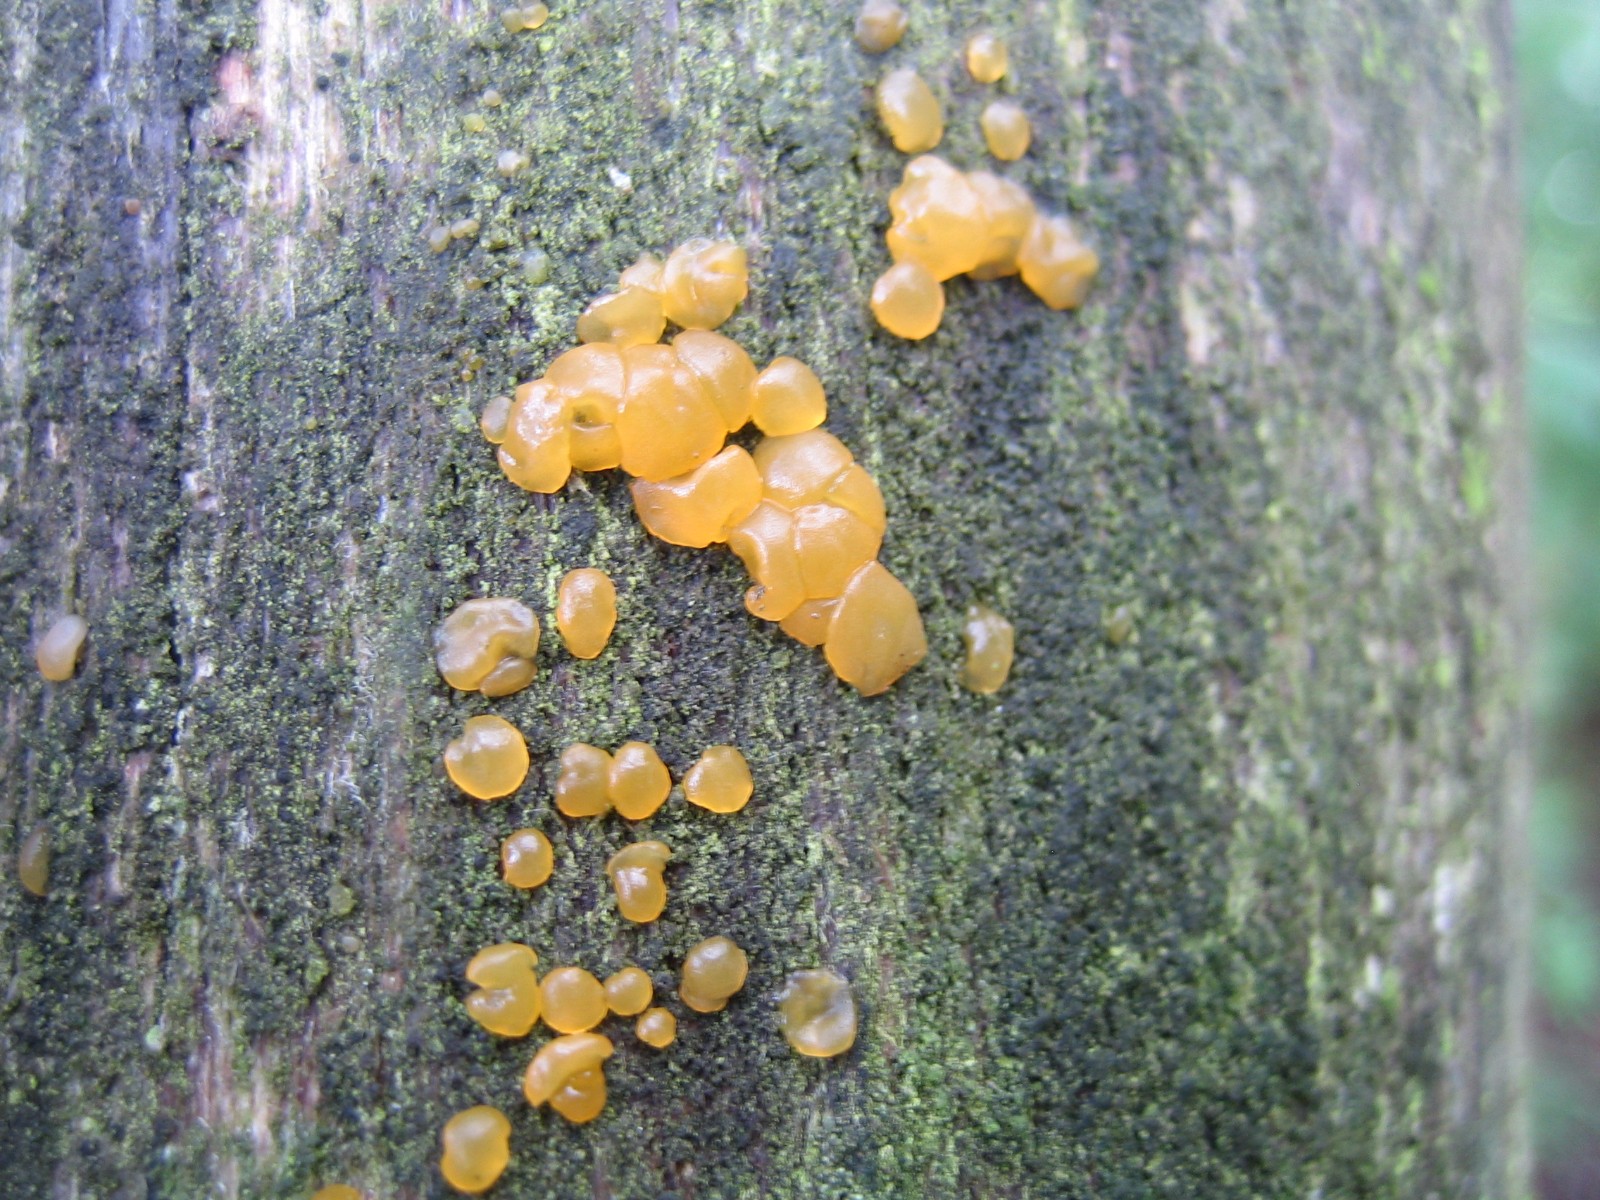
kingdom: Fungi
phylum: Basidiomycota
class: Dacrymycetes
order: Dacrymycetales
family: Dacrymycetaceae
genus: Dacrymyces
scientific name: Dacrymyces
